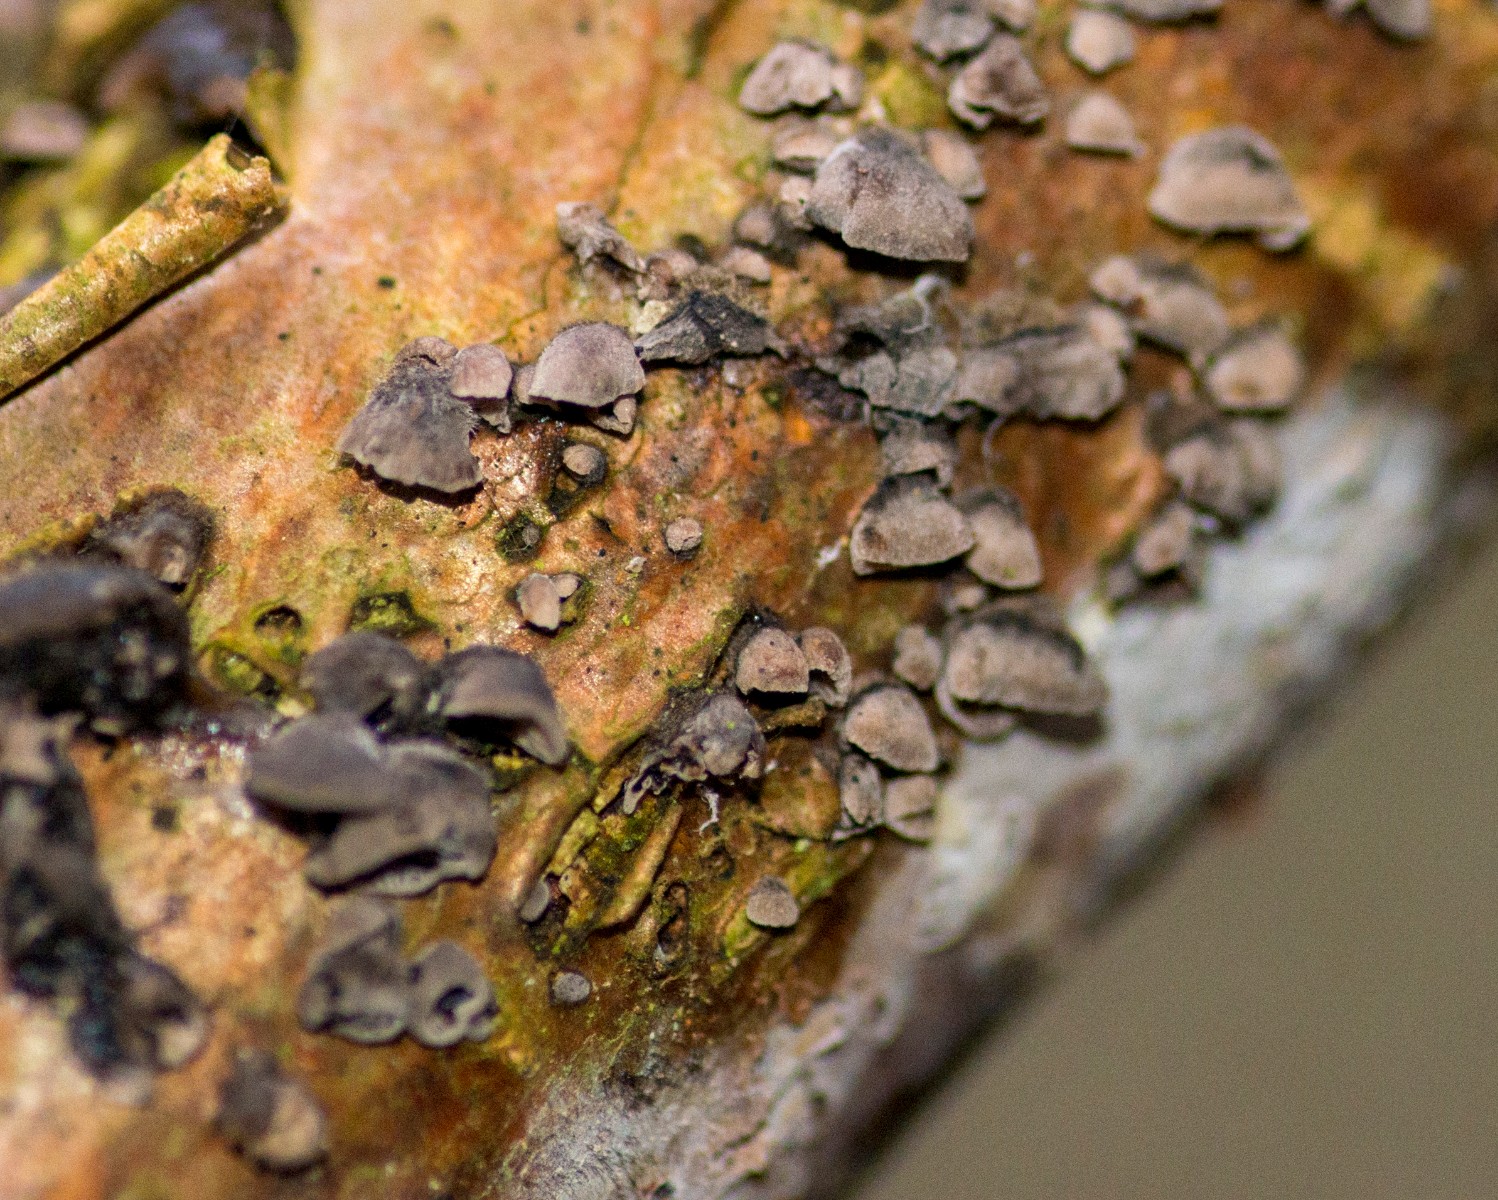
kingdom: Fungi
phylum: Basidiomycota
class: Agaricomycetes
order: Agaricales
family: Pleurotaceae
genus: Resupinatus
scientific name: Resupinatus trichotis
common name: mørkfiltet barkhat
